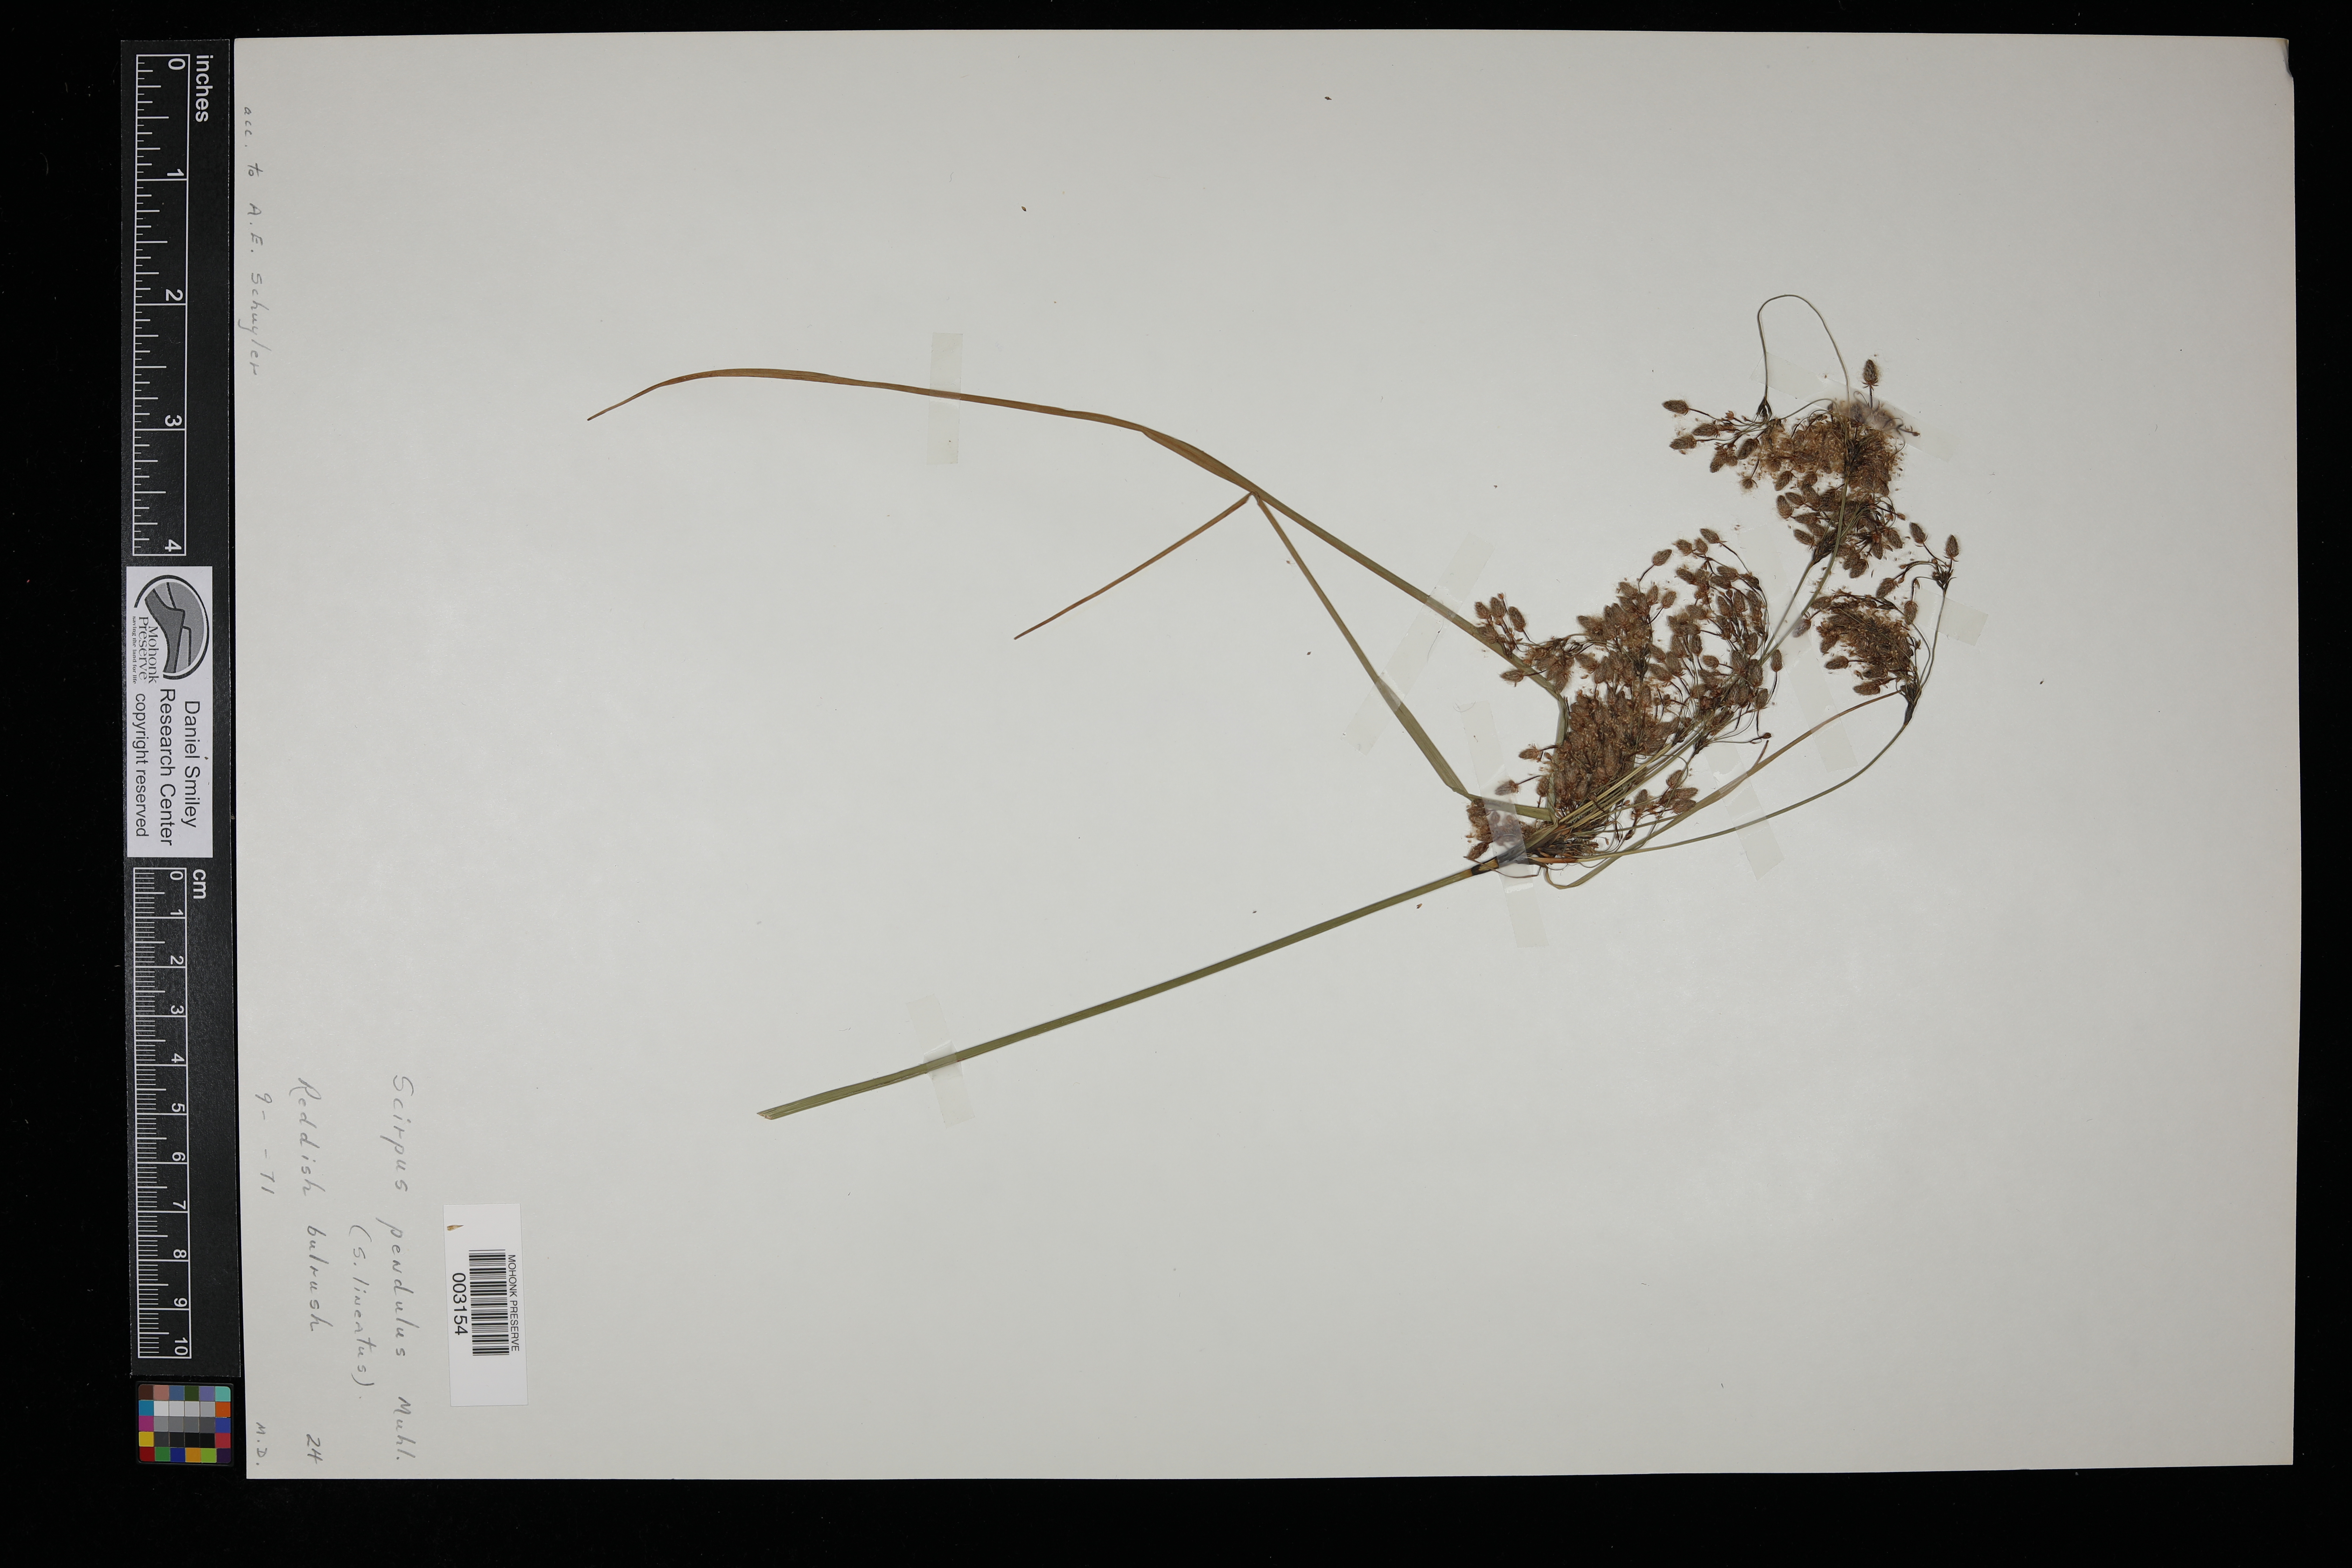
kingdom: Plantae
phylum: Tracheophyta
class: Liliopsida
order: Poales
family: Cyperaceae
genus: Scirpus
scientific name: Scirpus pendulus
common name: Nodding bulrush
